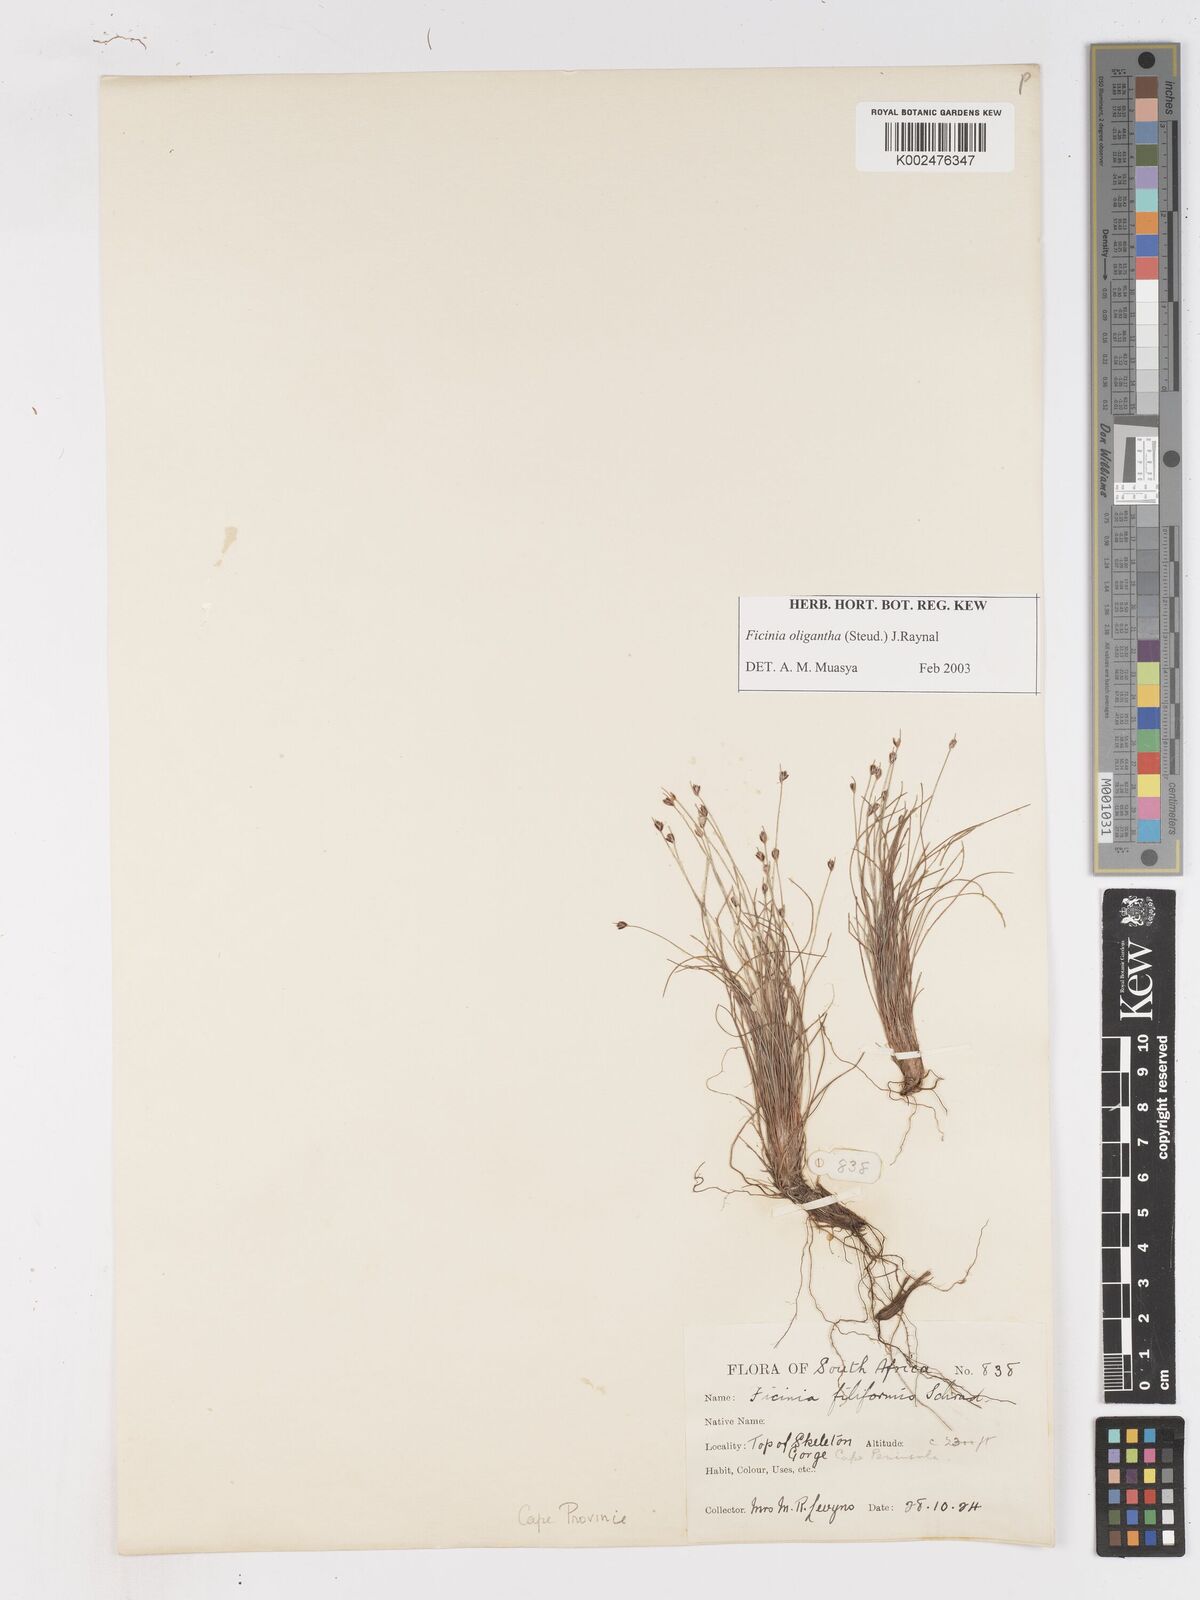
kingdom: Plantae
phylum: Tracheophyta
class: Liliopsida
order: Poales
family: Cyperaceae
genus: Ficinia
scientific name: Ficinia oligantha
